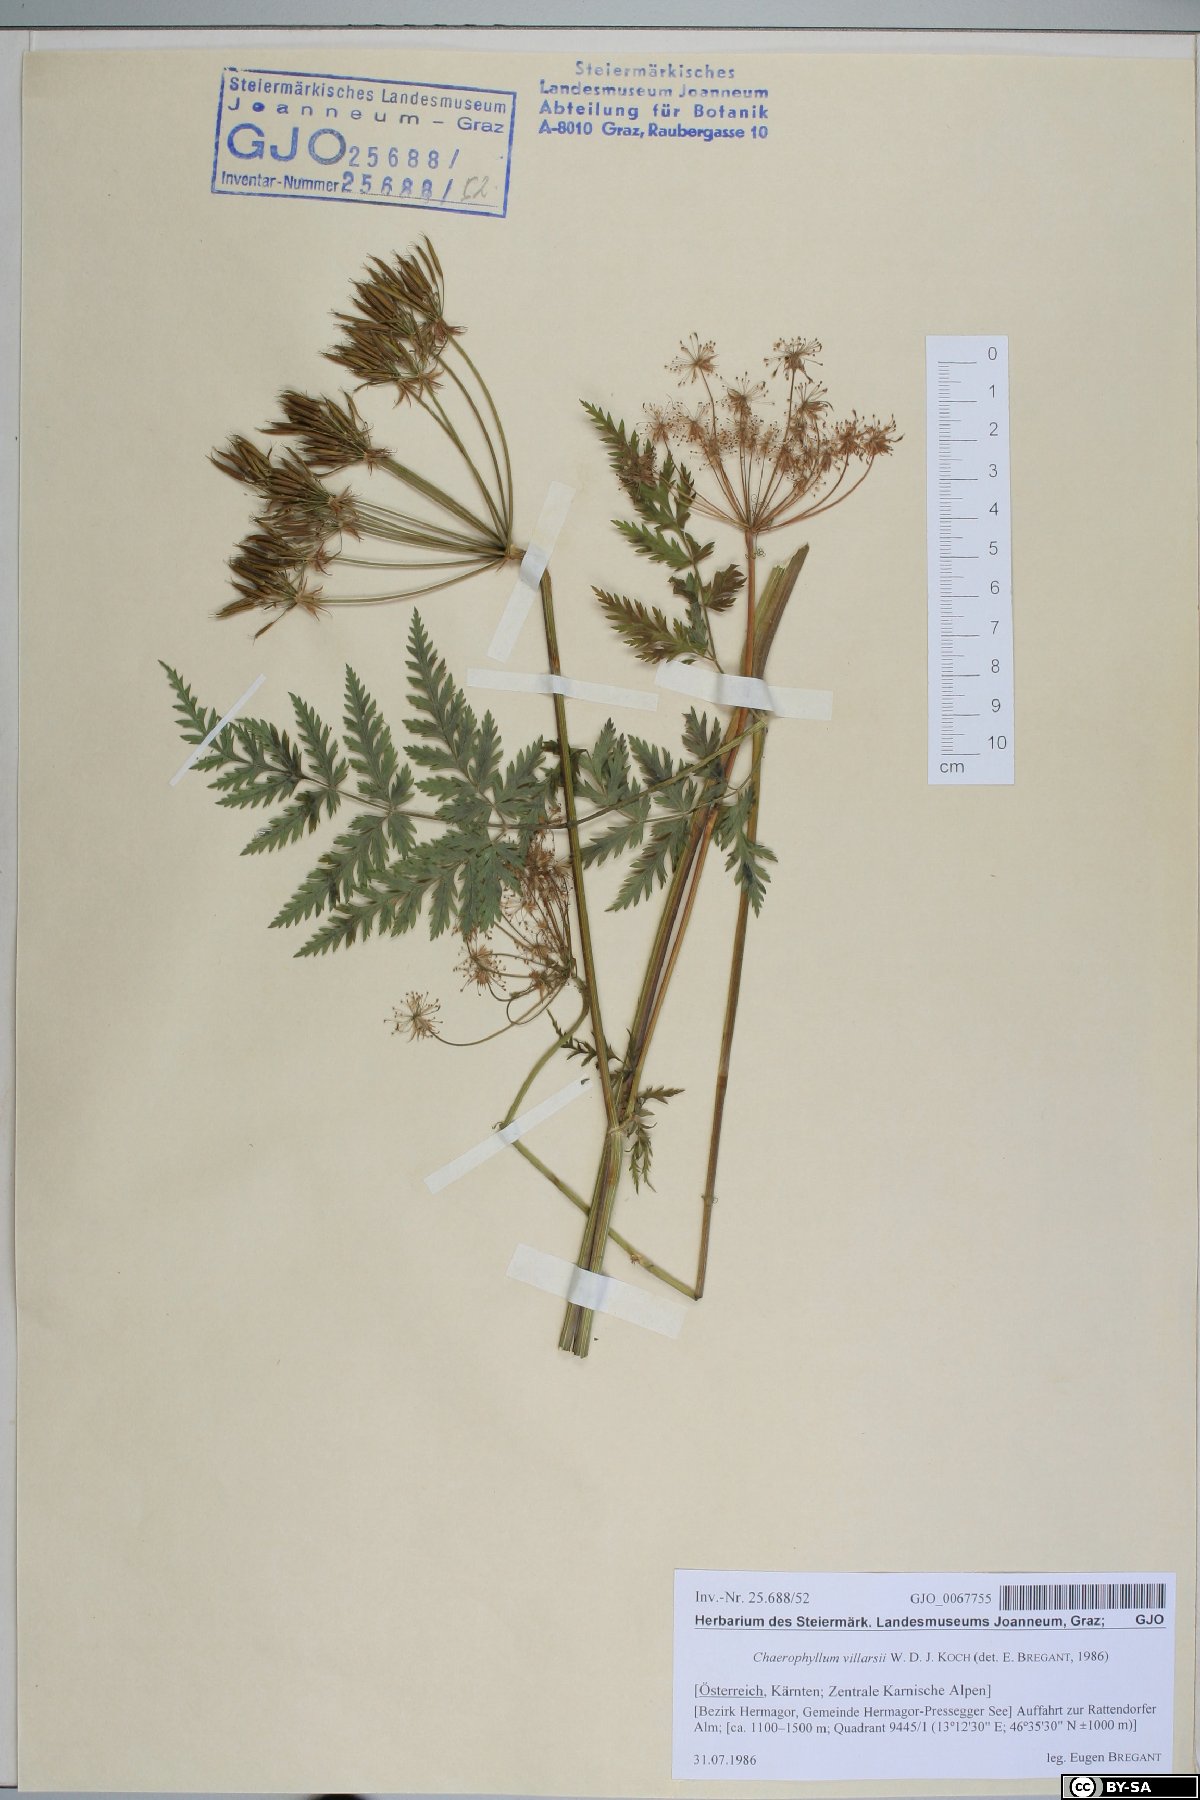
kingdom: Plantae
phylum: Tracheophyta
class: Magnoliopsida
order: Apiales
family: Apiaceae
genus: Chaerophyllum
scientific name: Chaerophyllum villarsii
